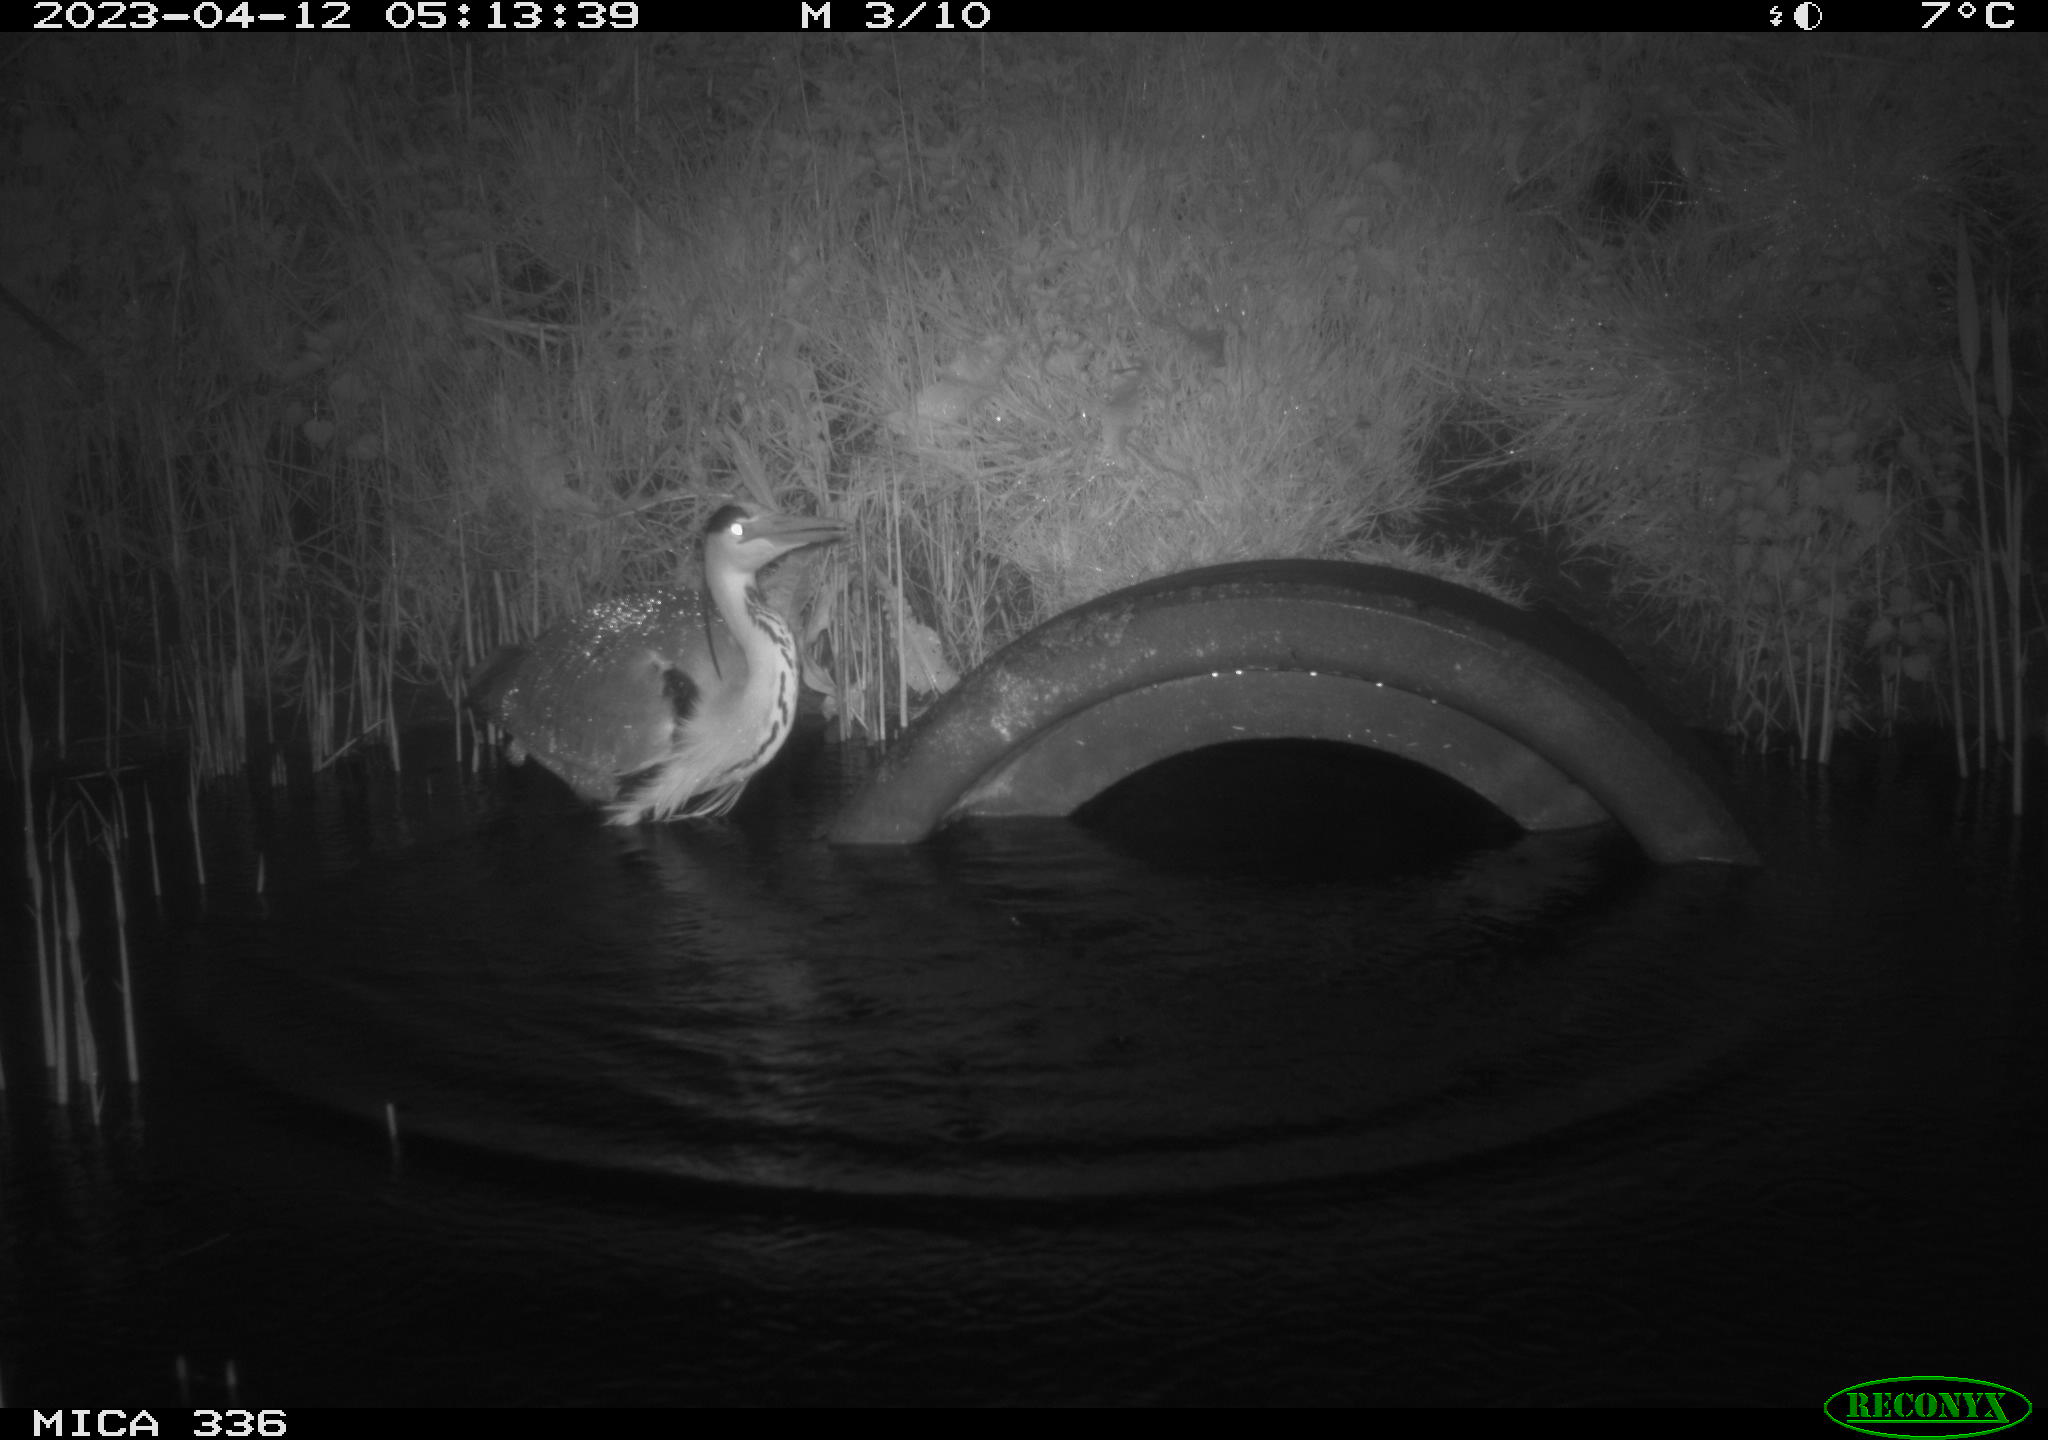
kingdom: Animalia
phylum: Chordata
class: Aves
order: Pelecaniformes
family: Ardeidae
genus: Ardea
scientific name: Ardea
